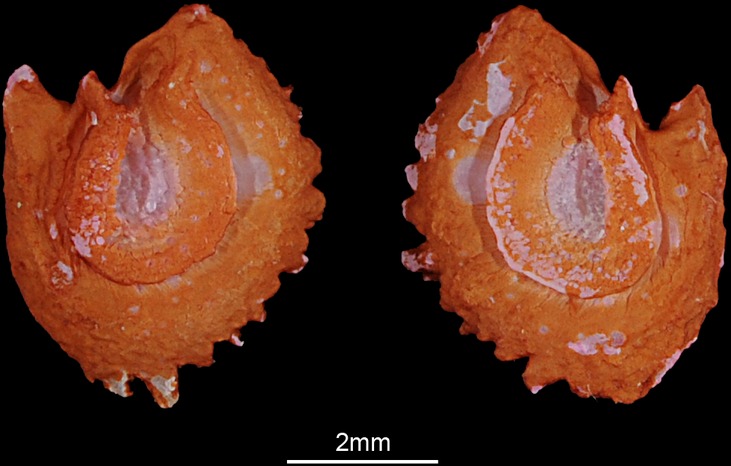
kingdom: Animalia
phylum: Chordata
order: Cypriniformes
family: Cyprinidae
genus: Luciobarbus
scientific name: Luciobarbus xanthopterus
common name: Yellowfin barbel
